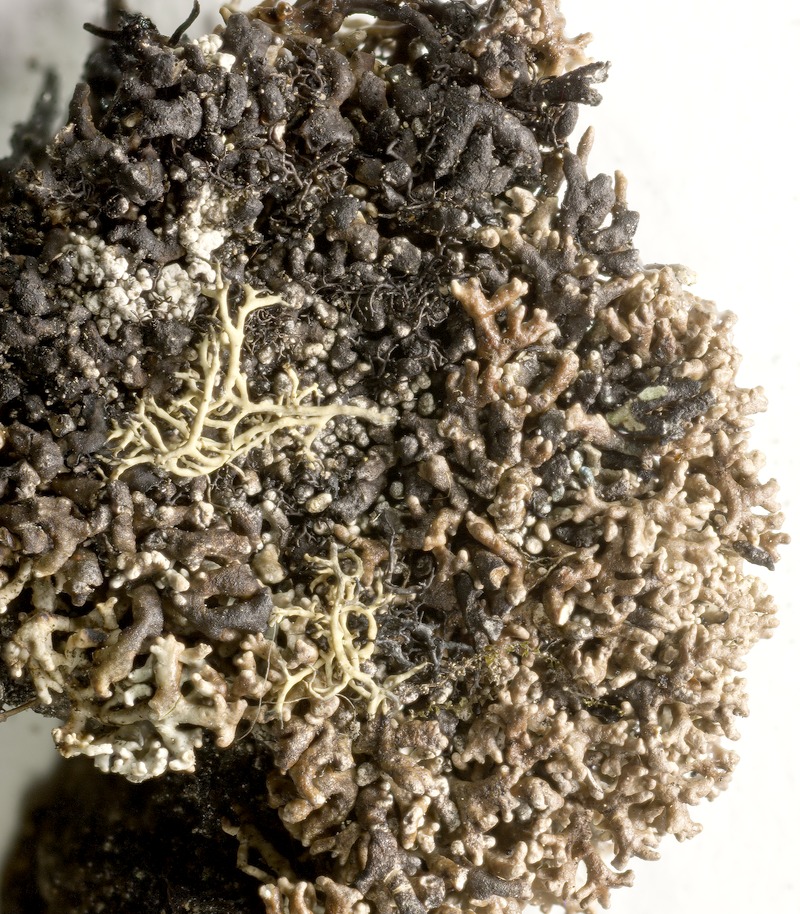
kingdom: Fungi
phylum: Ascomycota
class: Dothideomycetes
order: Mycosphaerellales
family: Mycosphaerellaceae
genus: Sphaerellothecium
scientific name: Sphaerellothecium minutum
